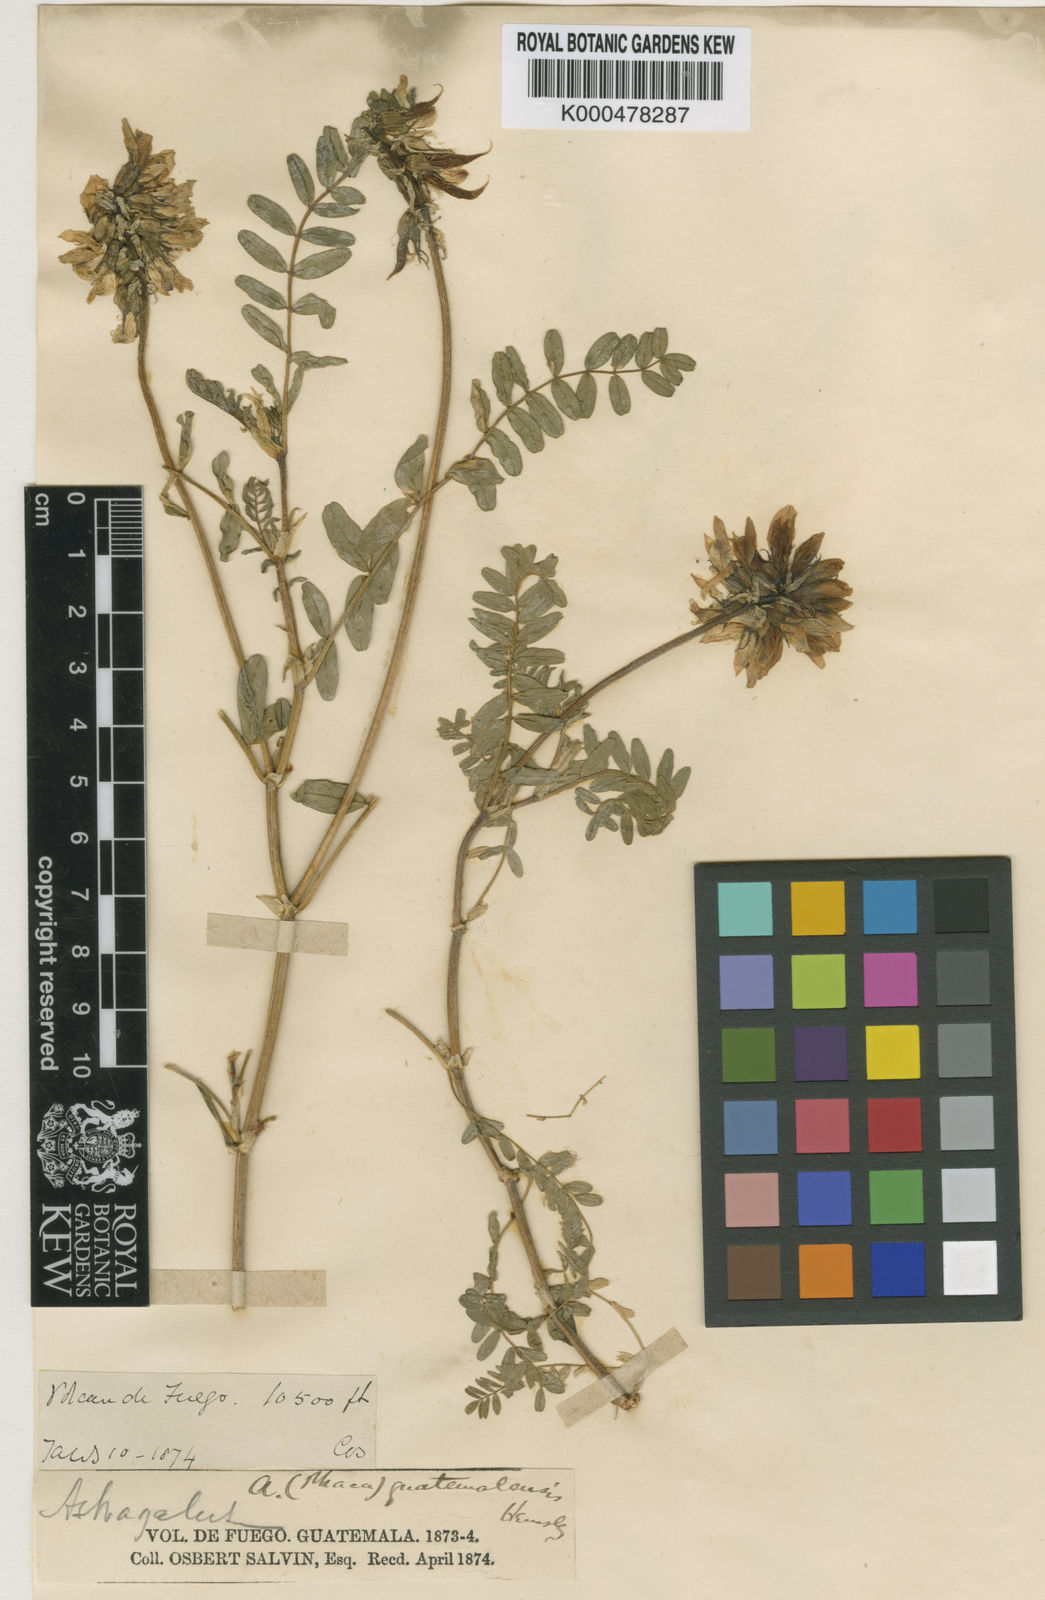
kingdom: Plantae
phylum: Tracheophyta
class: Magnoliopsida
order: Fabales
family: Fabaceae
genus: Astragalus
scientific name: Astragalus guatemalensis
